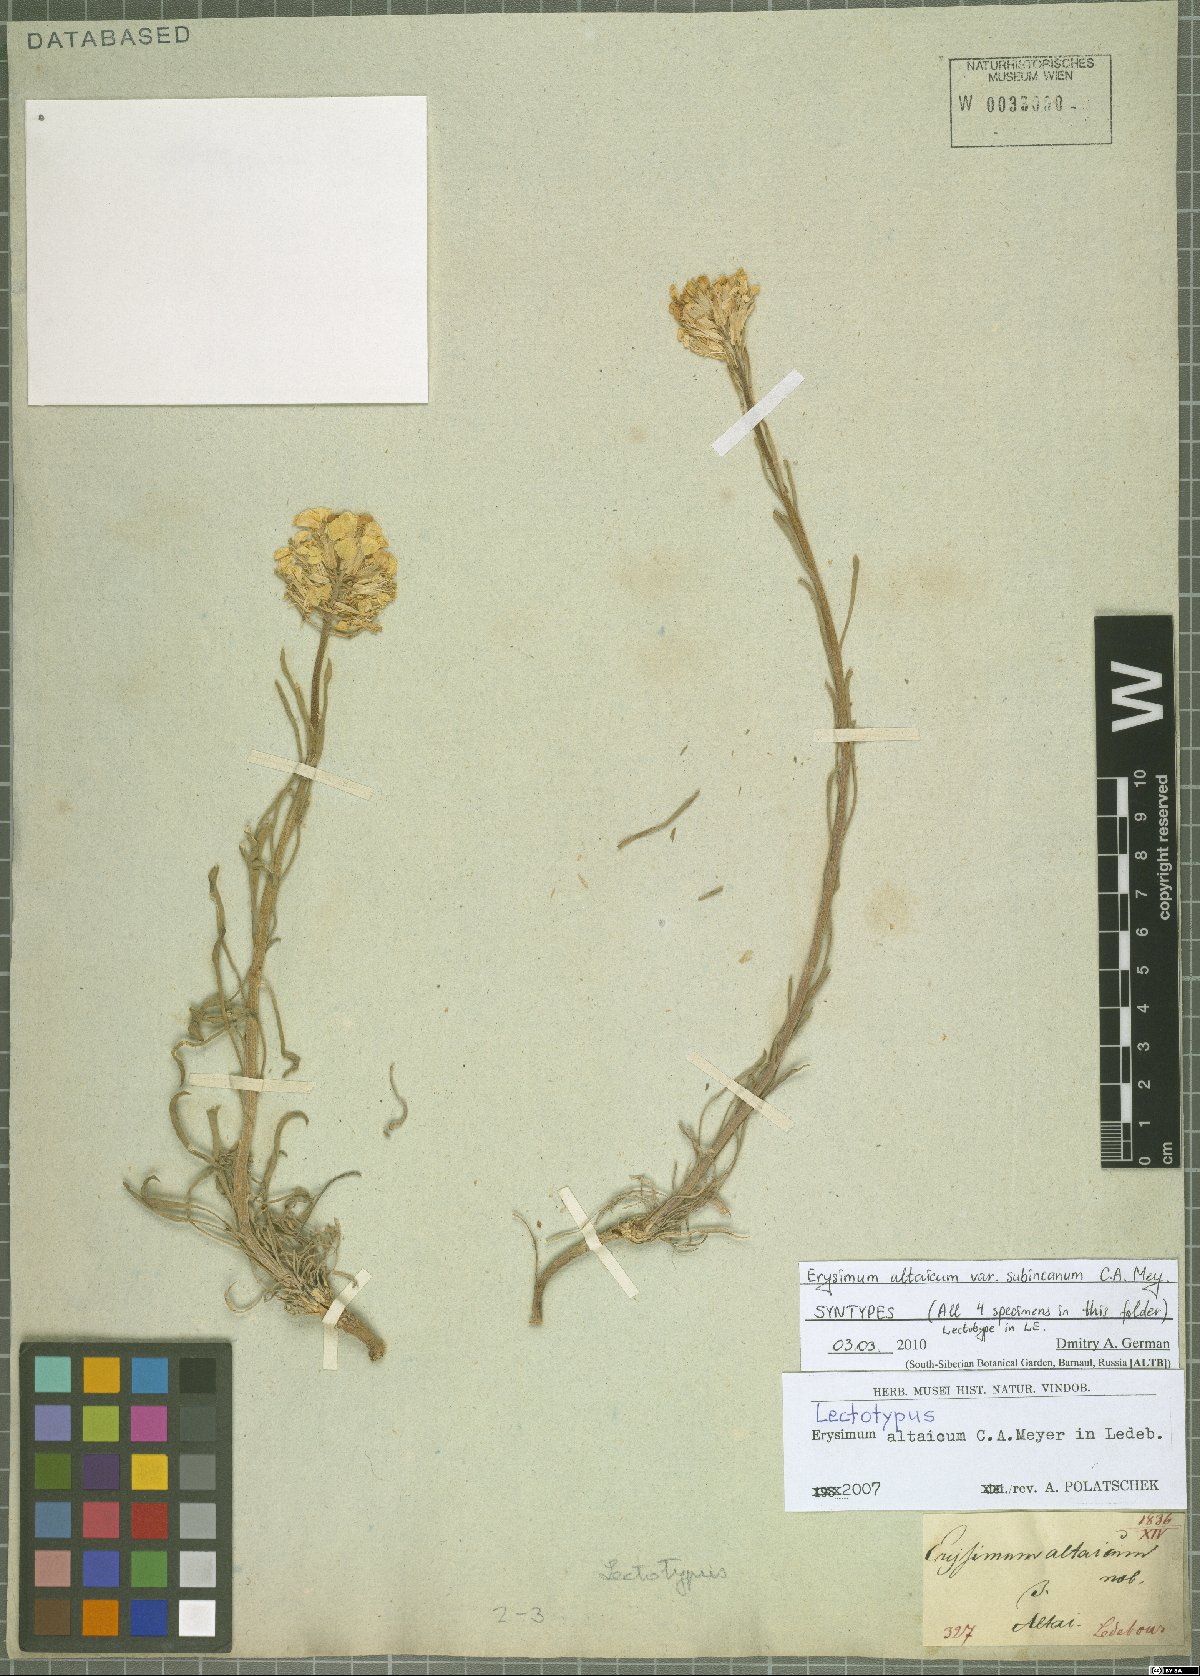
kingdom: Plantae
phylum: Tracheophyta
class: Magnoliopsida
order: Brassicales
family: Brassicaceae
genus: Erysimum
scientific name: Erysimum altaicum
